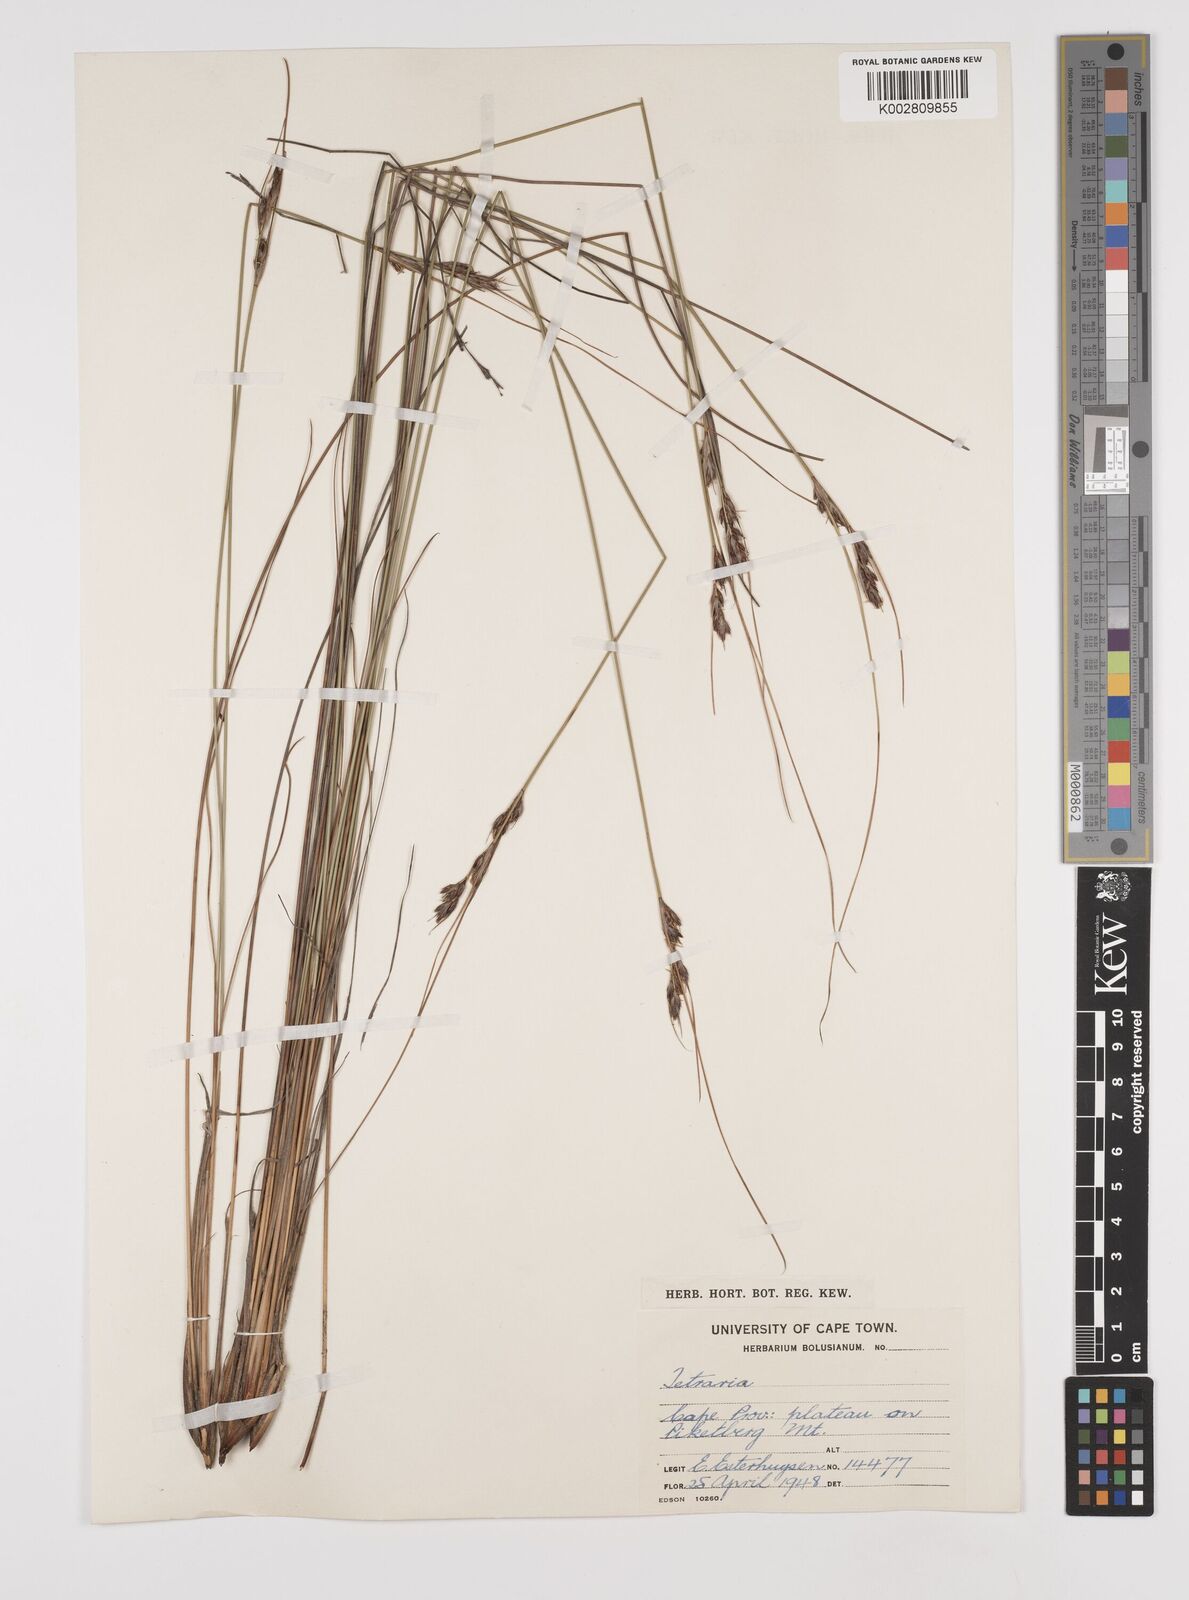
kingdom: Plantae
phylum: Tracheophyta
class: Liliopsida
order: Poales
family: Cyperaceae
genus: Schoenus
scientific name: Schoenus pseudoloreus
